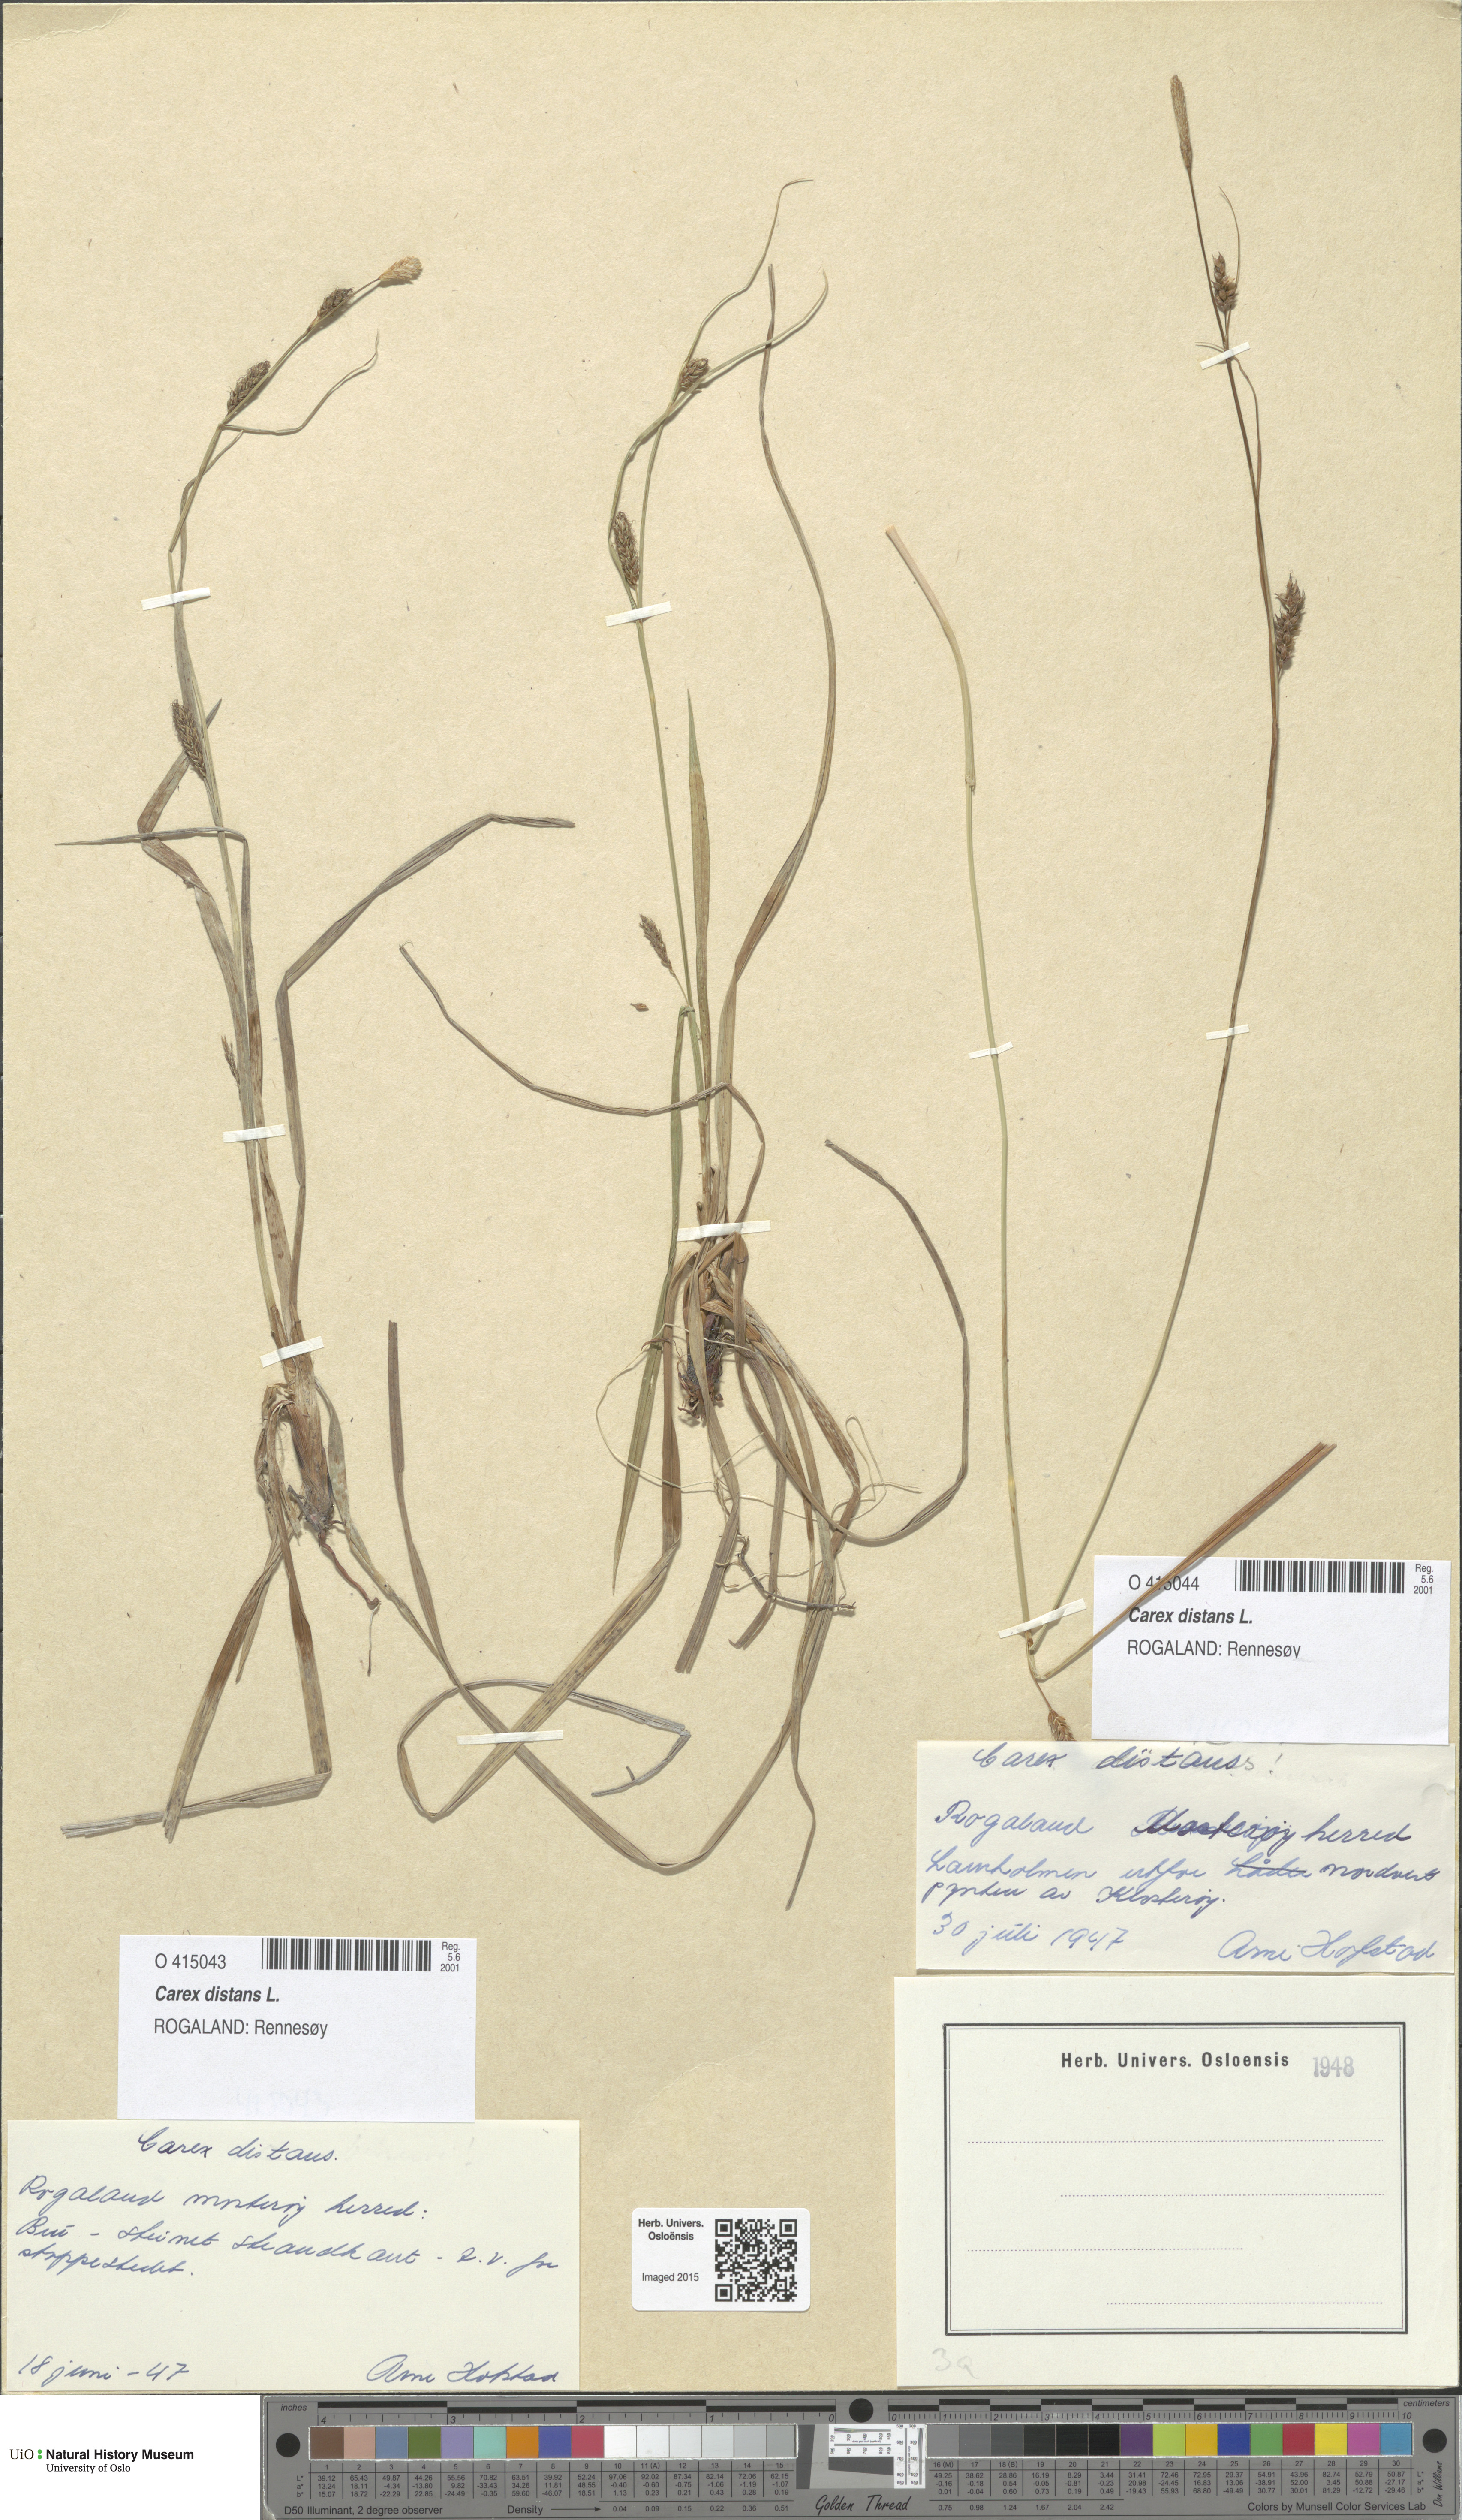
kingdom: Plantae
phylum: Tracheophyta
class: Liliopsida
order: Poales
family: Cyperaceae
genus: Carex
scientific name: Carex distans
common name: Distant sedge
